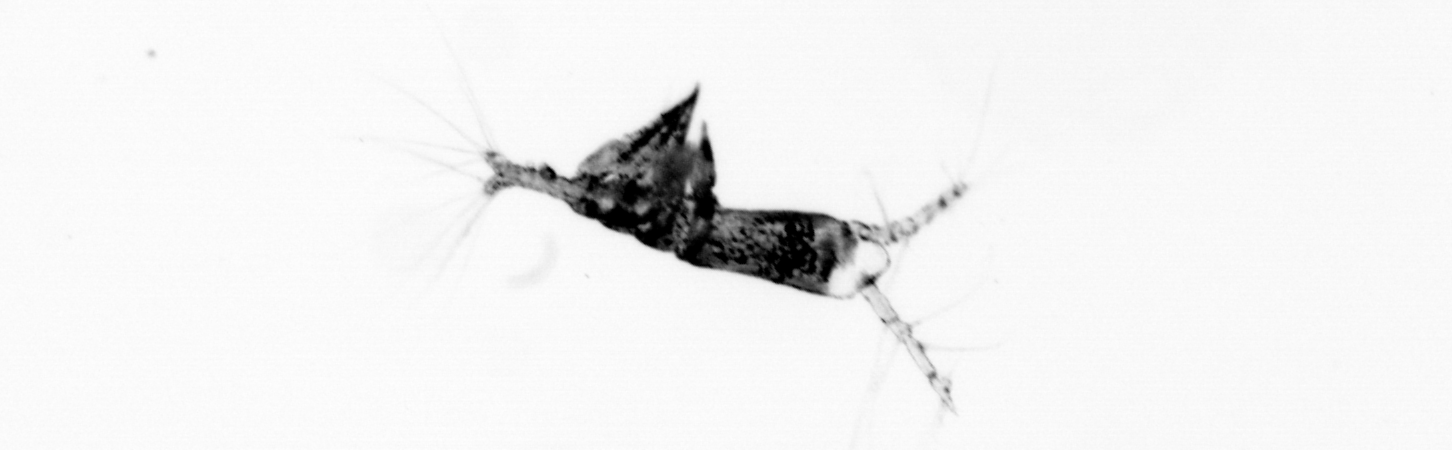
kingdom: Animalia
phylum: Arthropoda
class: Copepoda
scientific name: Copepoda
